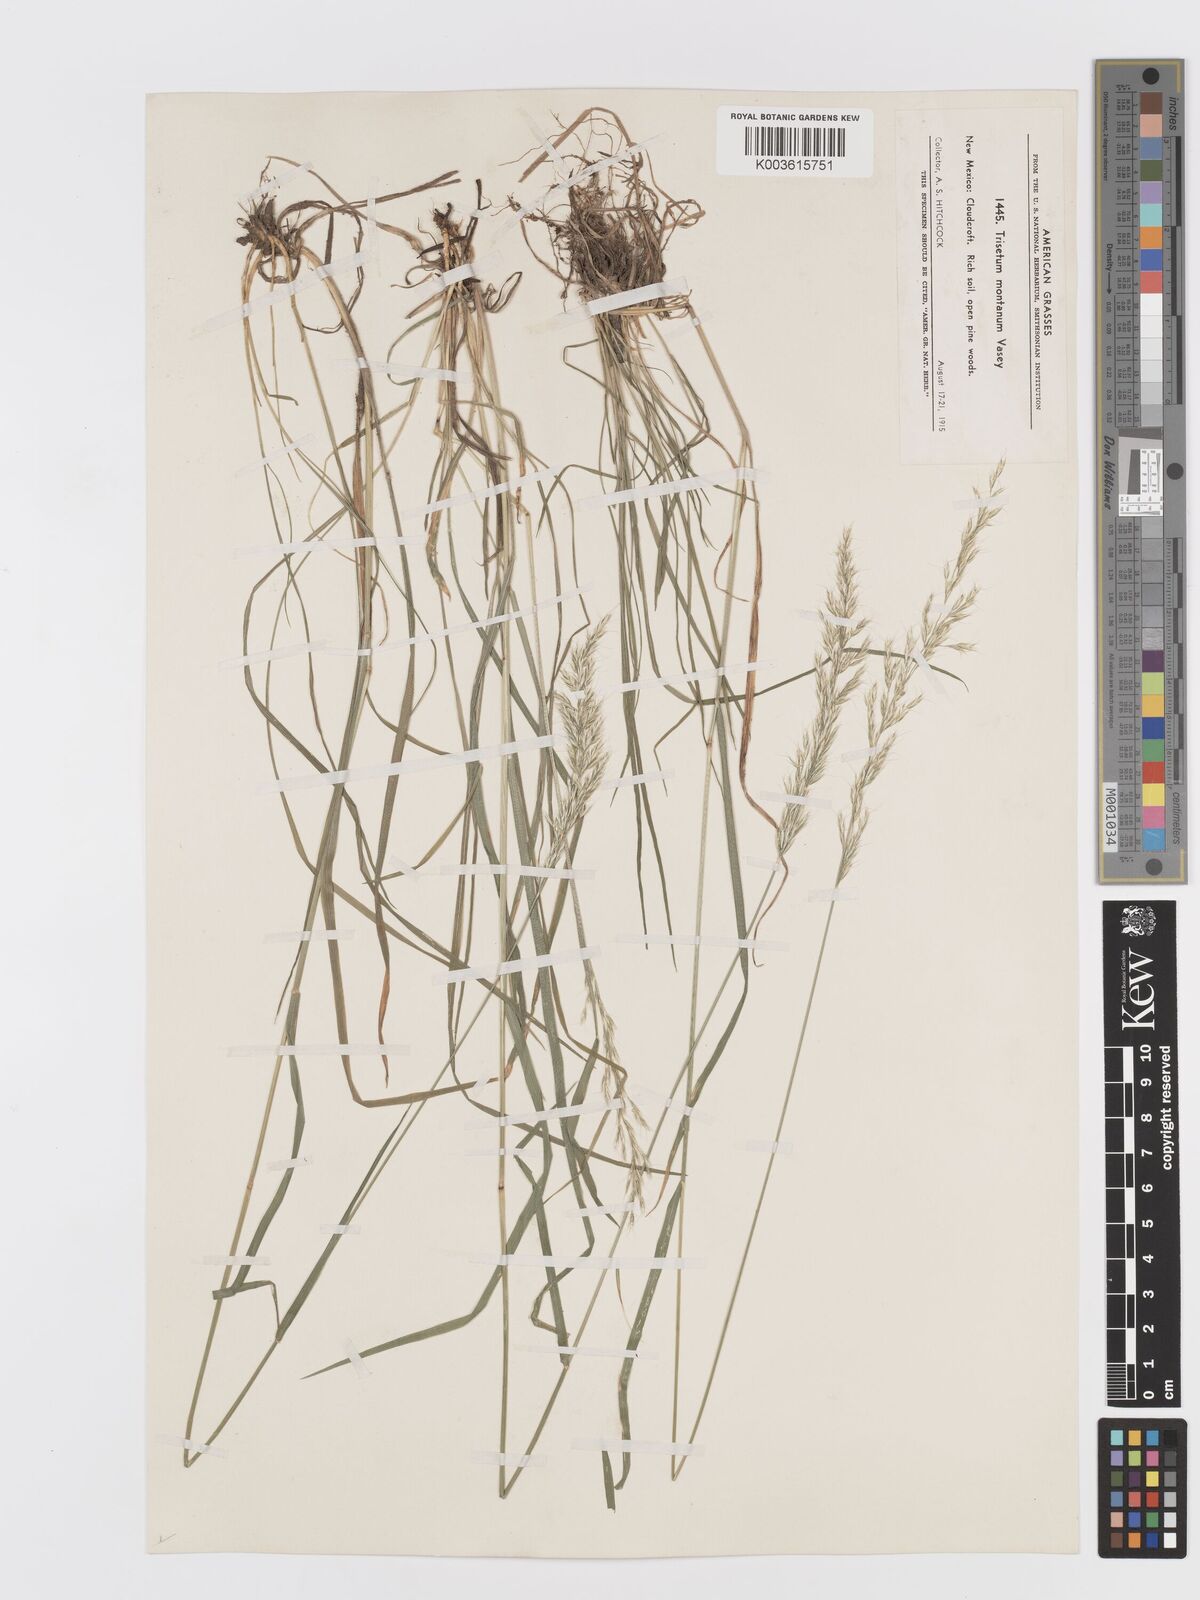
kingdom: Plantae
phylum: Tracheophyta
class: Liliopsida
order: Poales
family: Poaceae
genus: Koeleria
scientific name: Koeleria vaseyi
